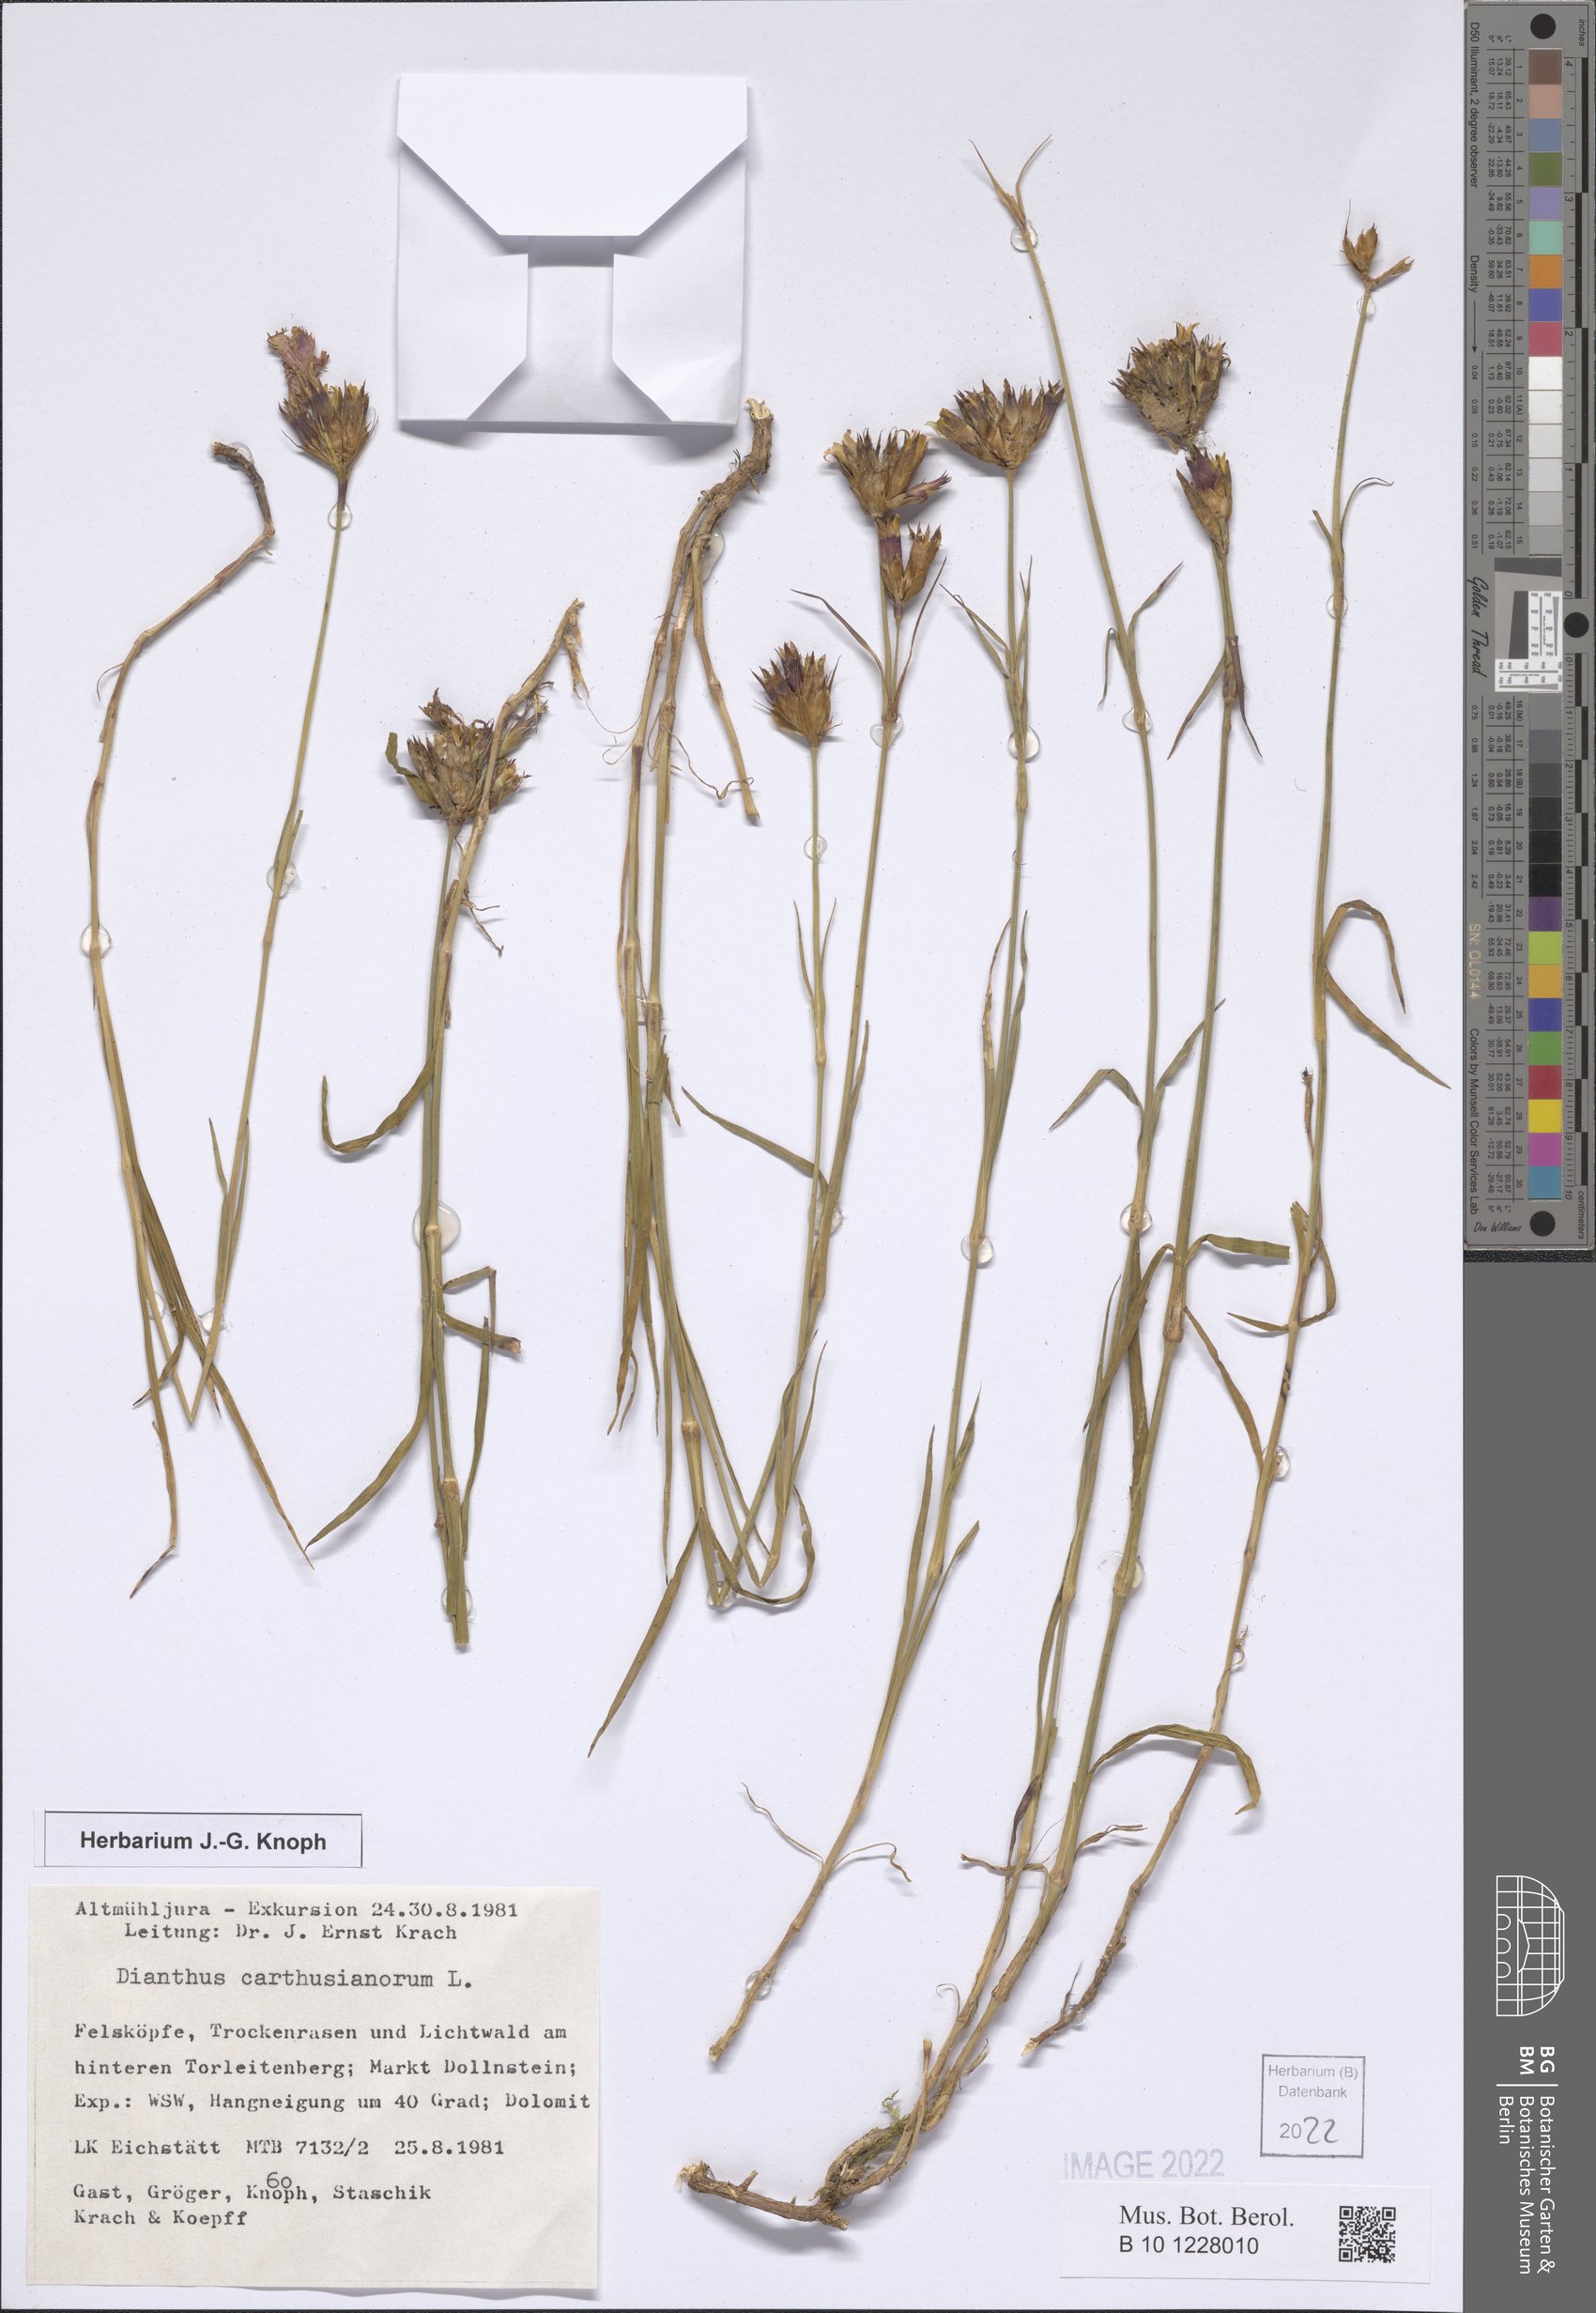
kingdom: Plantae
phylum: Tracheophyta
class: Magnoliopsida
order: Caryophyllales
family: Caryophyllaceae
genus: Dianthus
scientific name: Dianthus carthusianorum
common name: Carthusian pink
